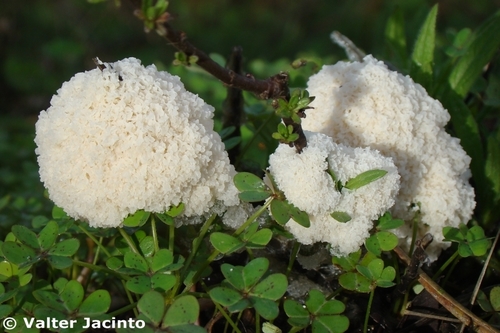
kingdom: Protozoa
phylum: Mycetozoa
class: Myxomycetes
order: Physarales
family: Didymiaceae
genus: Mucilago
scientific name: Mucilago crustacea
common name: Dog vomit slime mould
